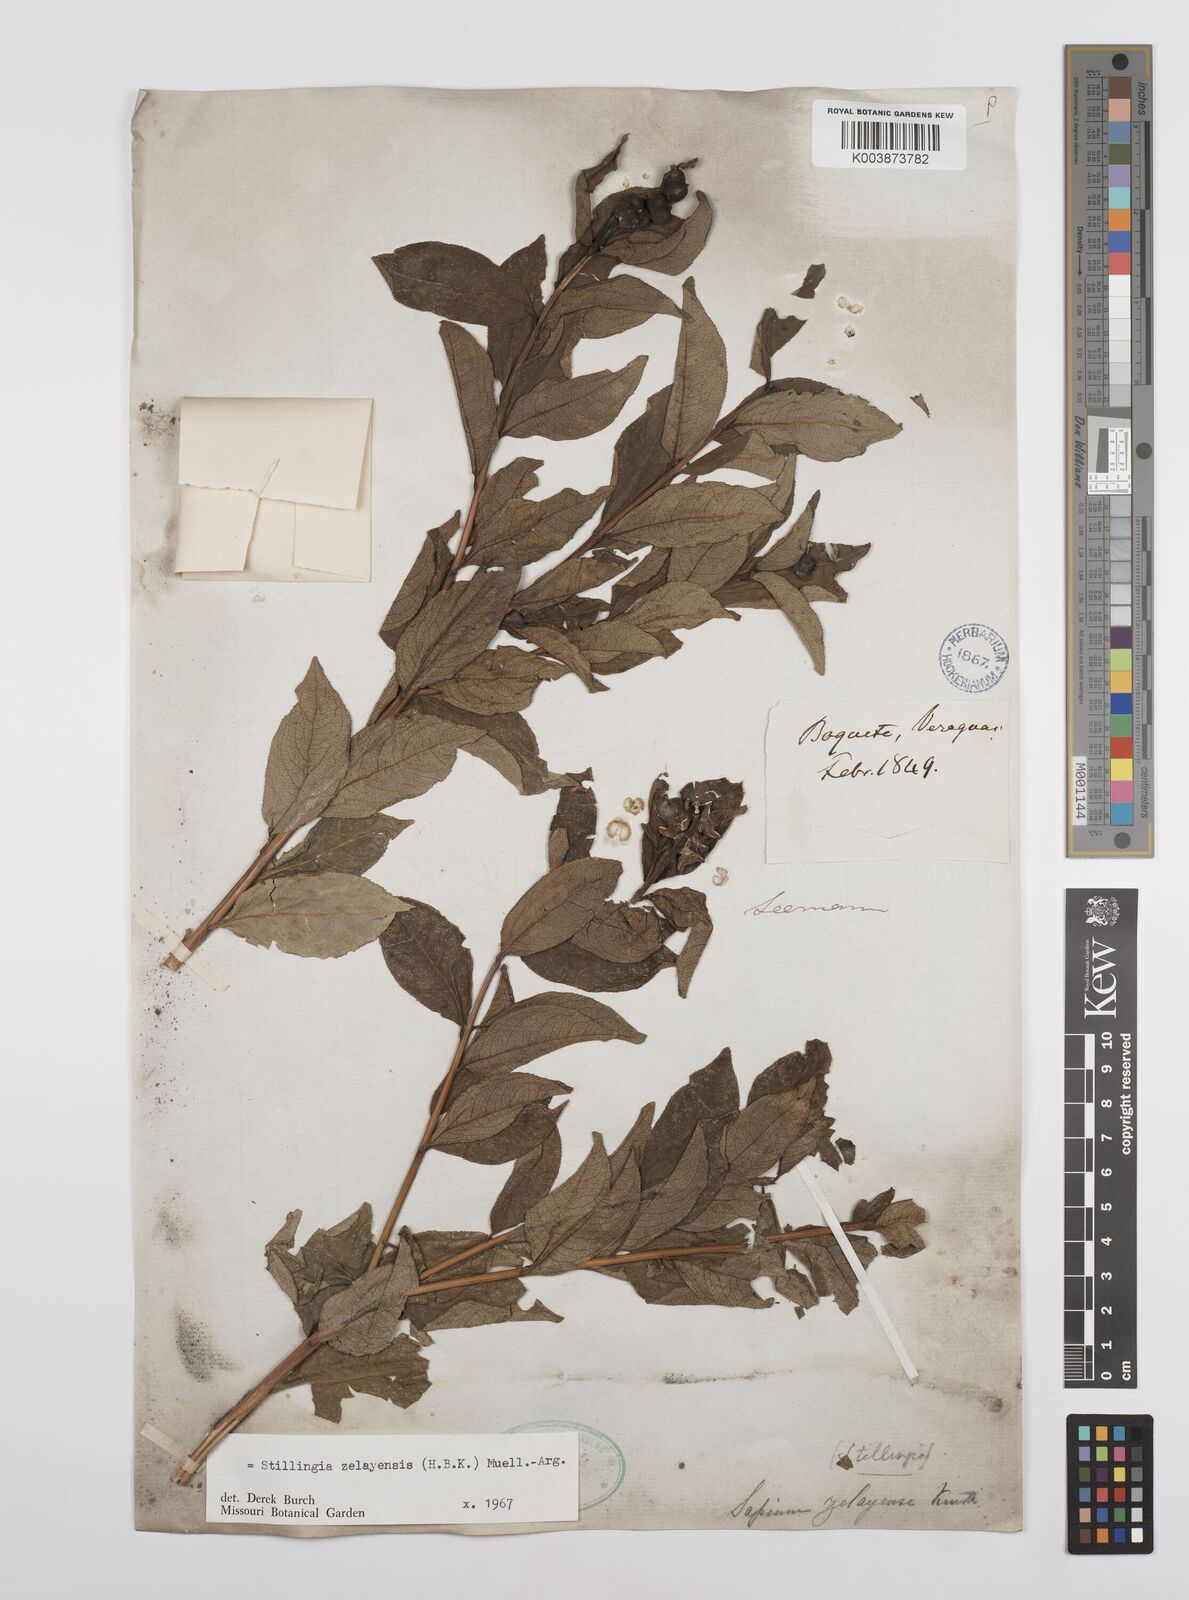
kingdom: Plantae
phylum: Tracheophyta
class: Magnoliopsida
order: Malpighiales
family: Euphorbiaceae
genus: Stillingia
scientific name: Stillingia zelayensis
